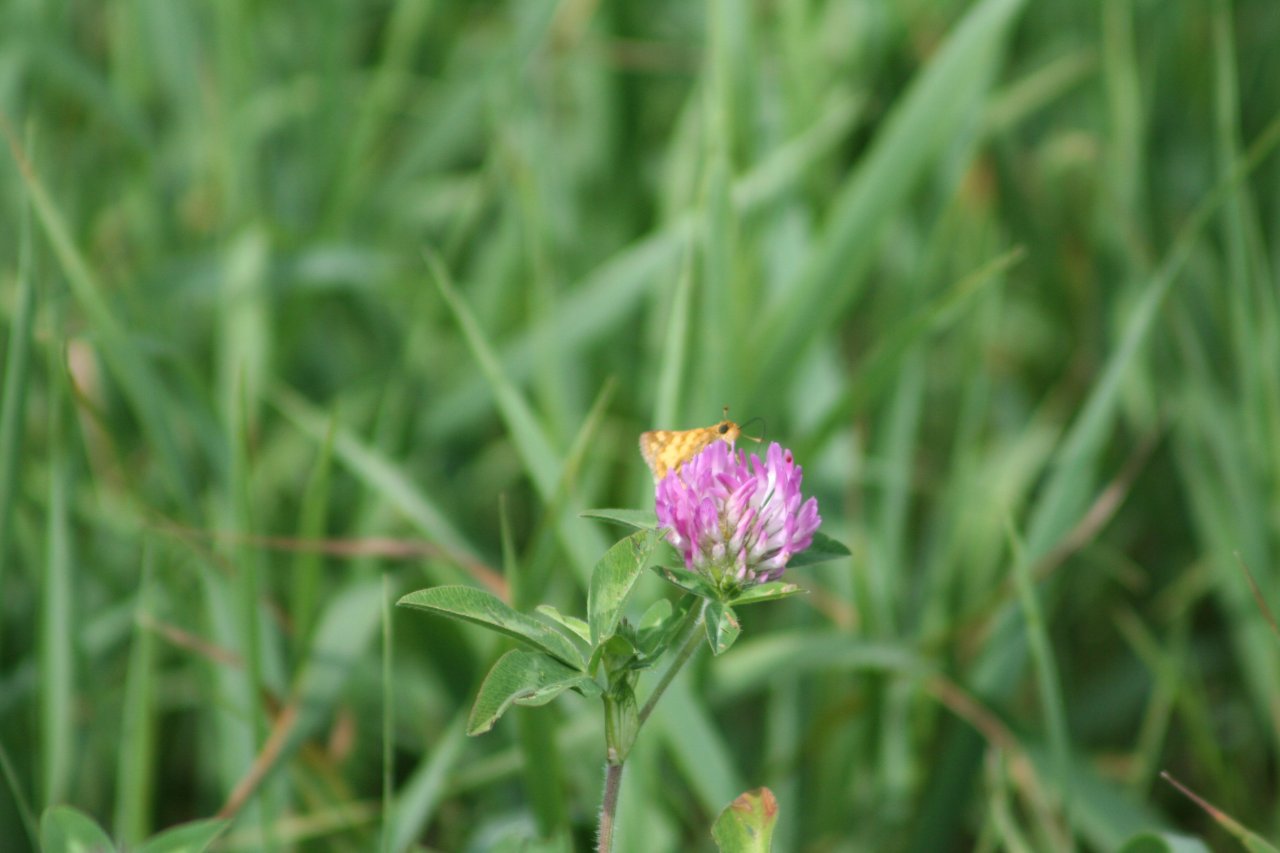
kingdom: Animalia
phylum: Arthropoda
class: Insecta
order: Lepidoptera
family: Hesperiidae
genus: Polites
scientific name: Polites coras
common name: Peck's Skipper
